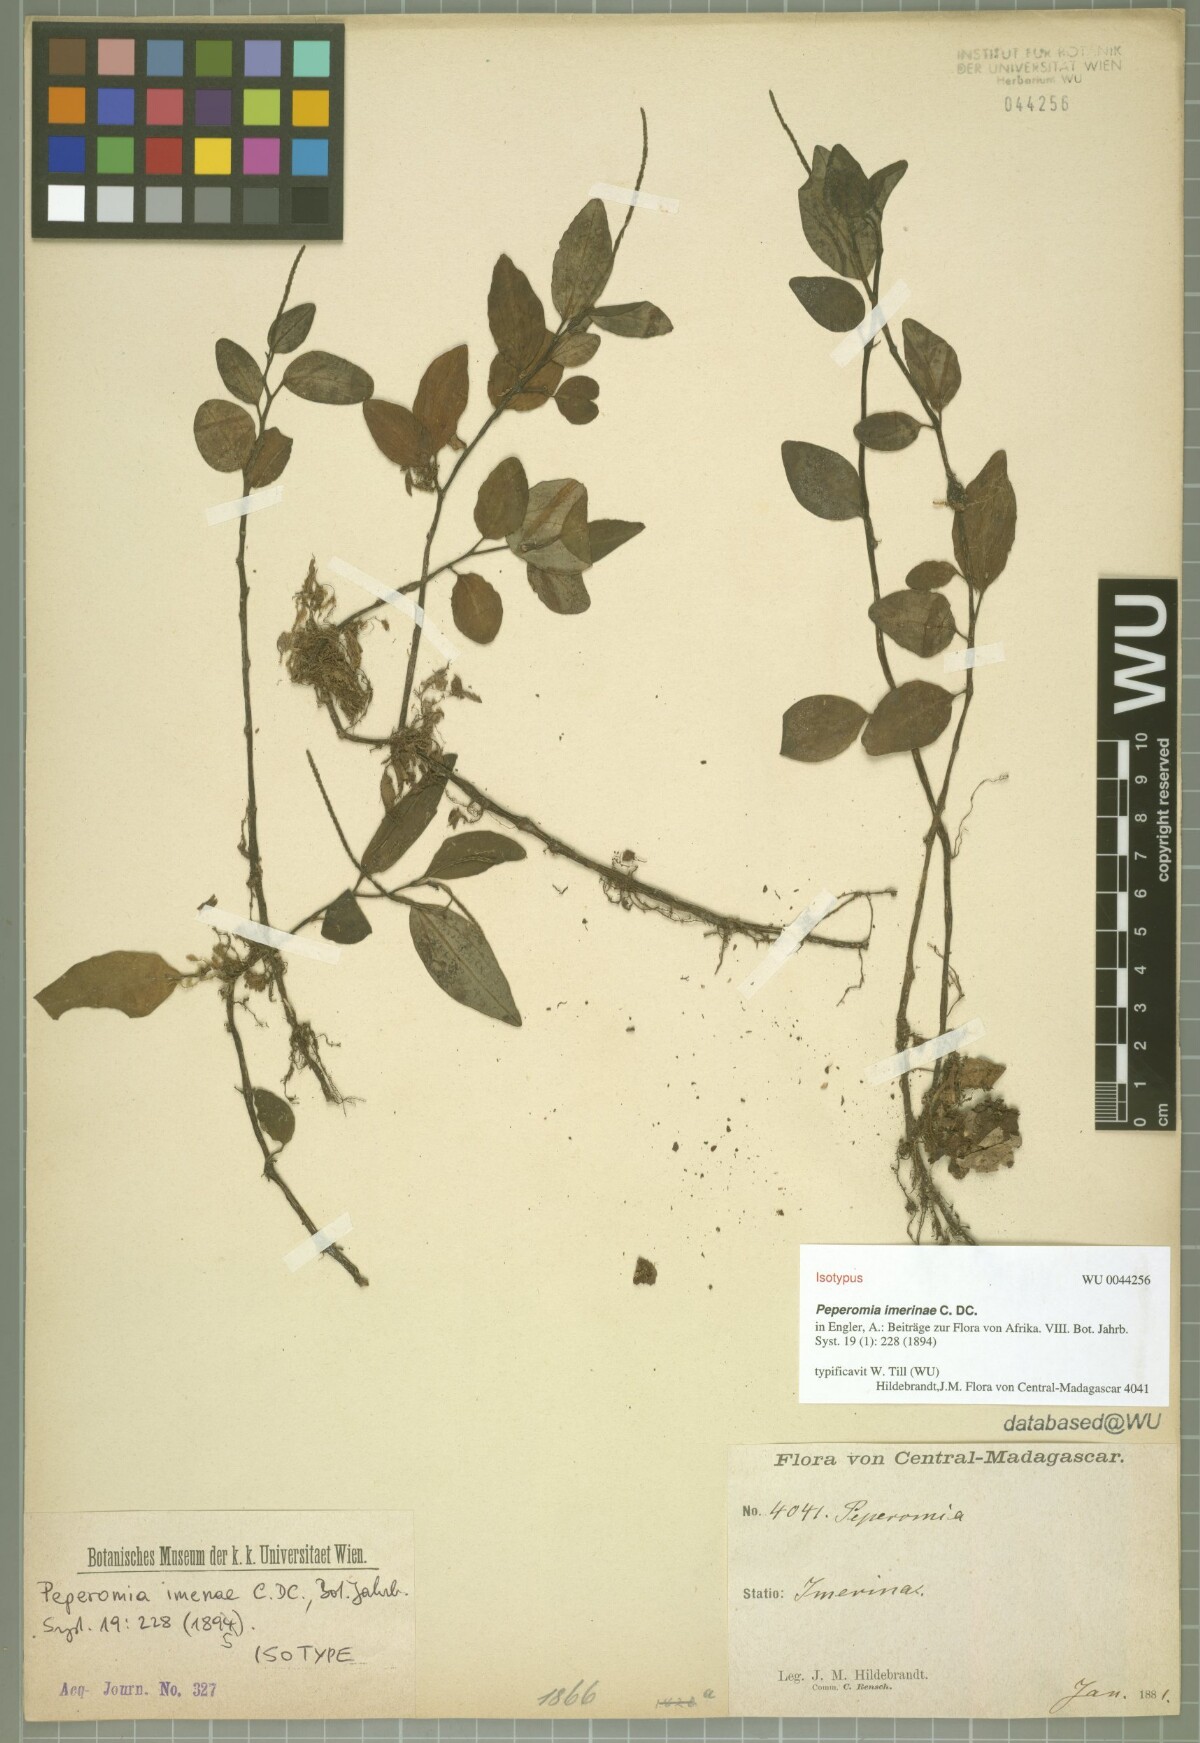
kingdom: Plantae
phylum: Tracheophyta
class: Magnoliopsida
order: Piperales
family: Piperaceae
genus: Peperomia
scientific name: Peperomia imerinae
